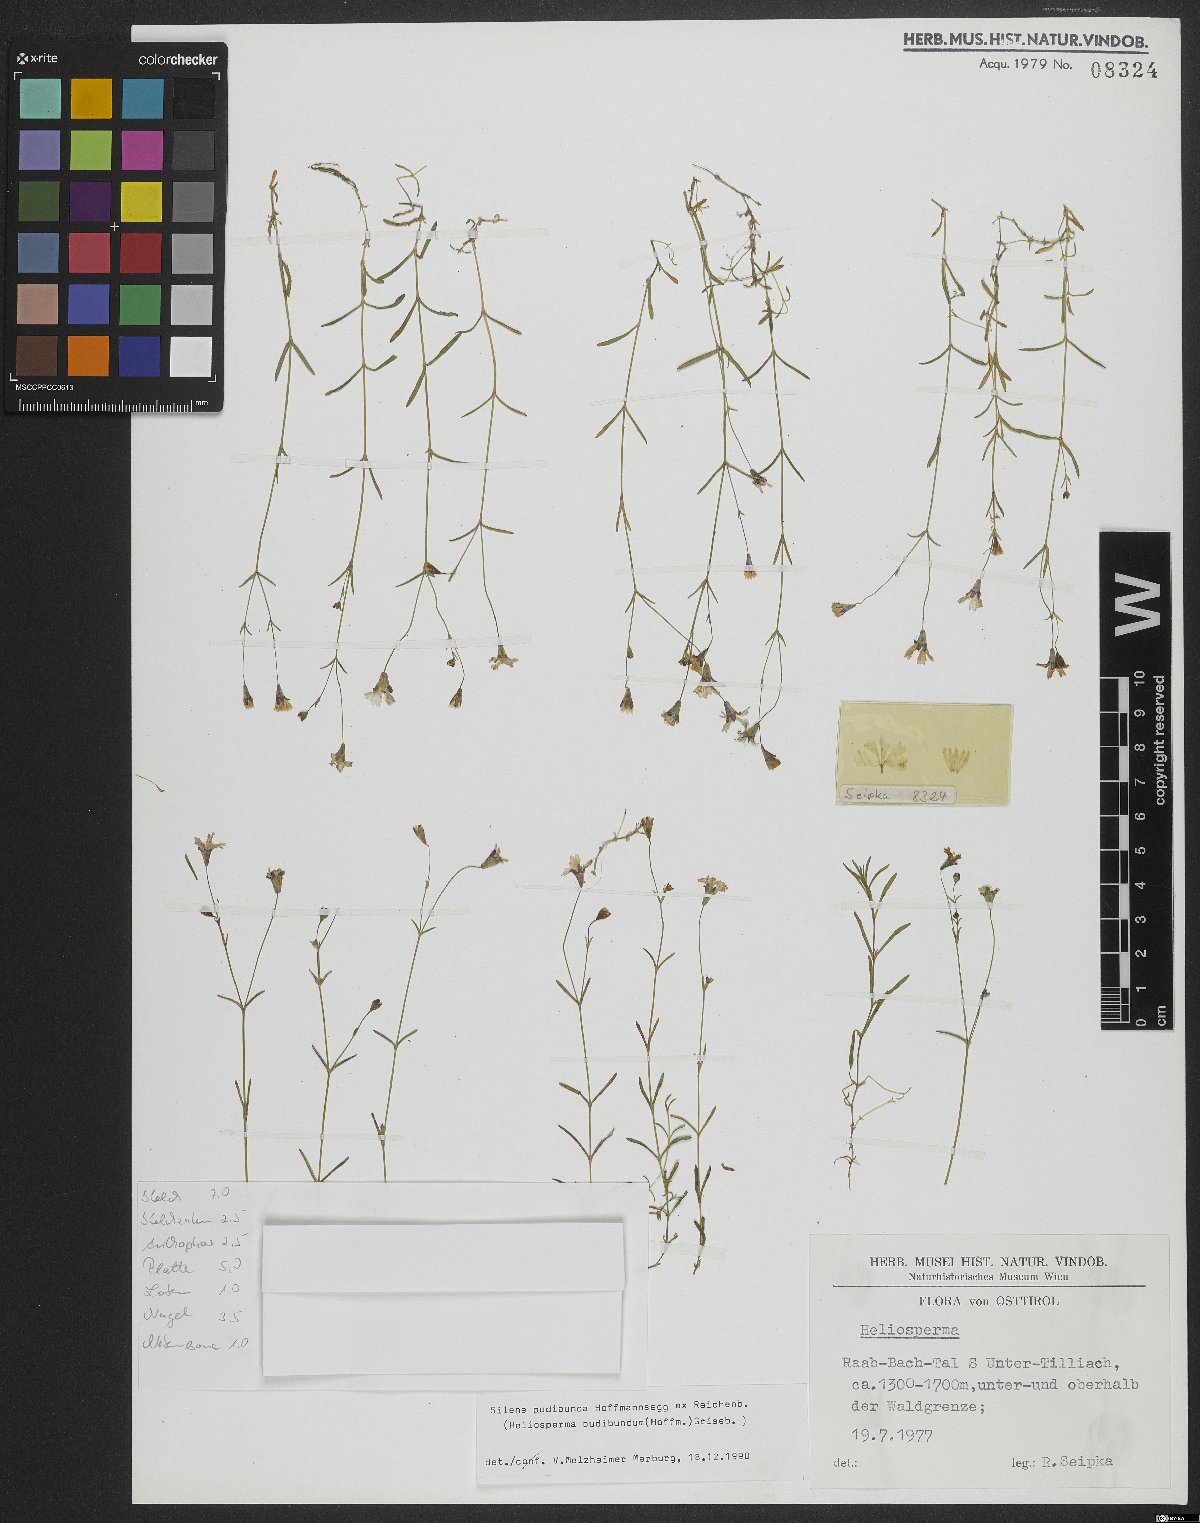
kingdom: Plantae
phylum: Tracheophyta
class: Magnoliopsida
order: Caryophyllales
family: Caryophyllaceae
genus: Heliosperma
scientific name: Heliosperma pudibundum
